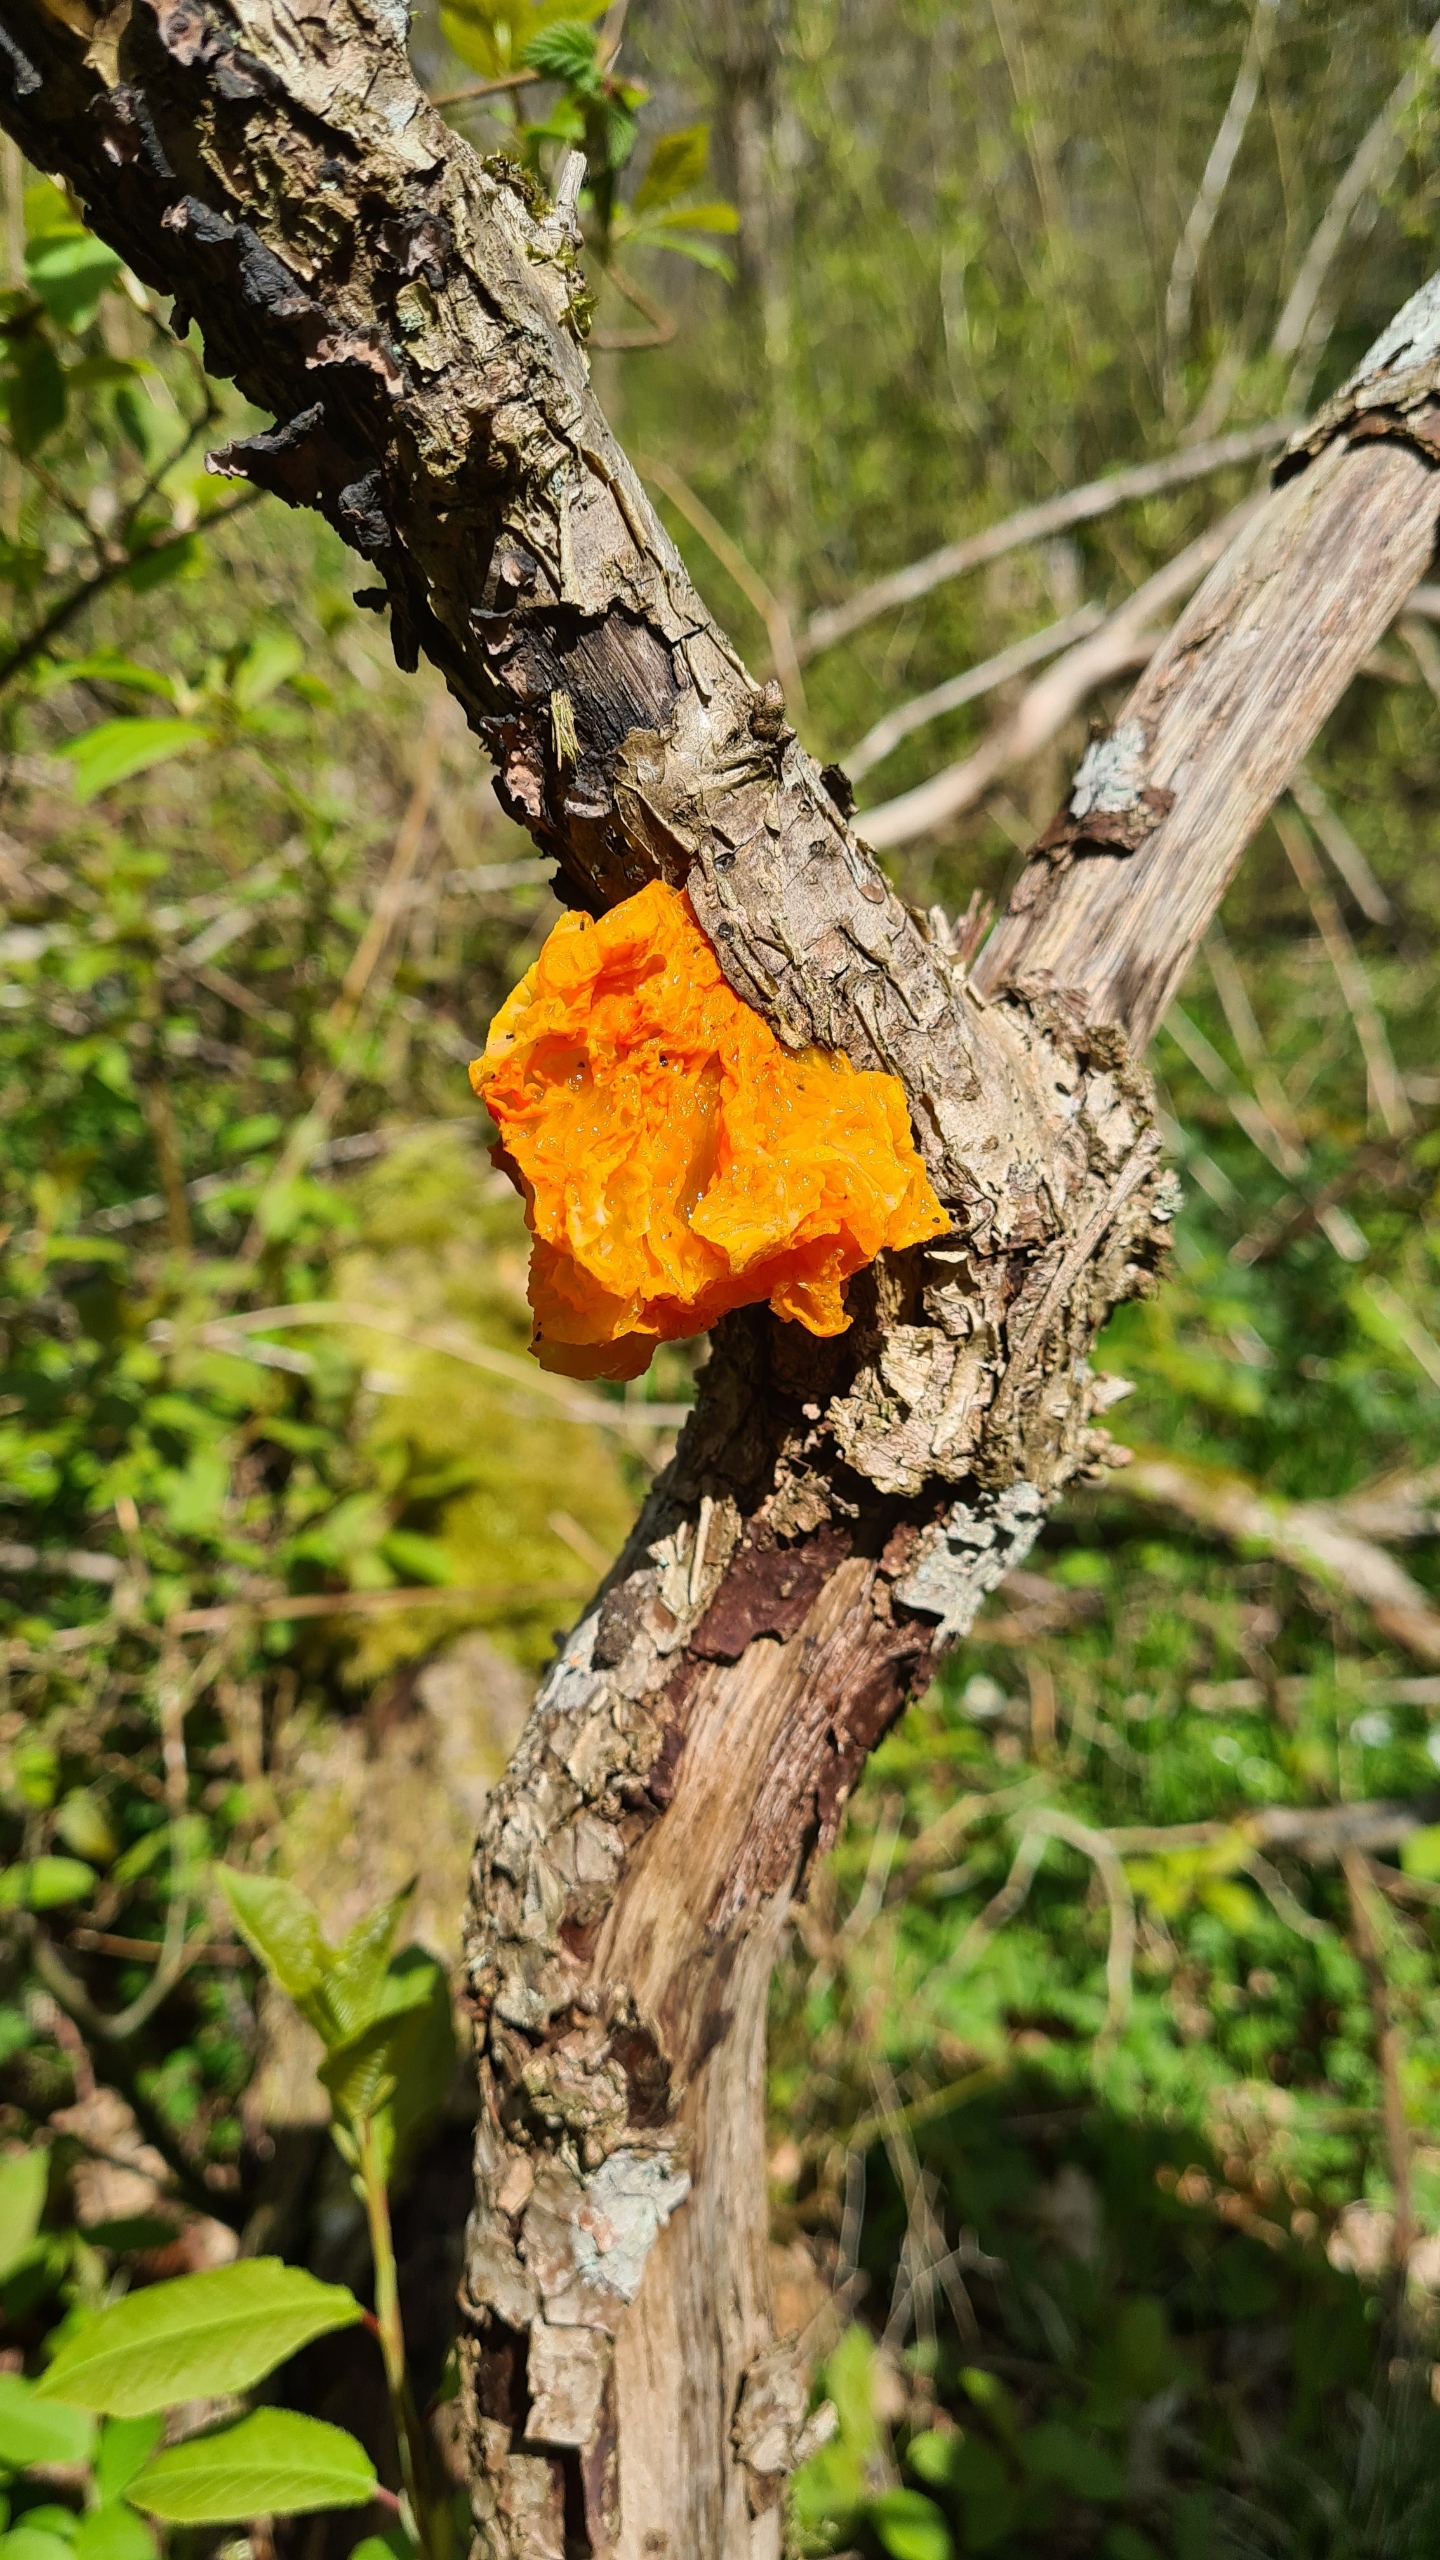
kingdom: Fungi
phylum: Basidiomycota
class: Tremellomycetes
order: Tremellales
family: Tremellaceae
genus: Tremella
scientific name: Tremella mesenterica
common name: Gul bævresvamp
